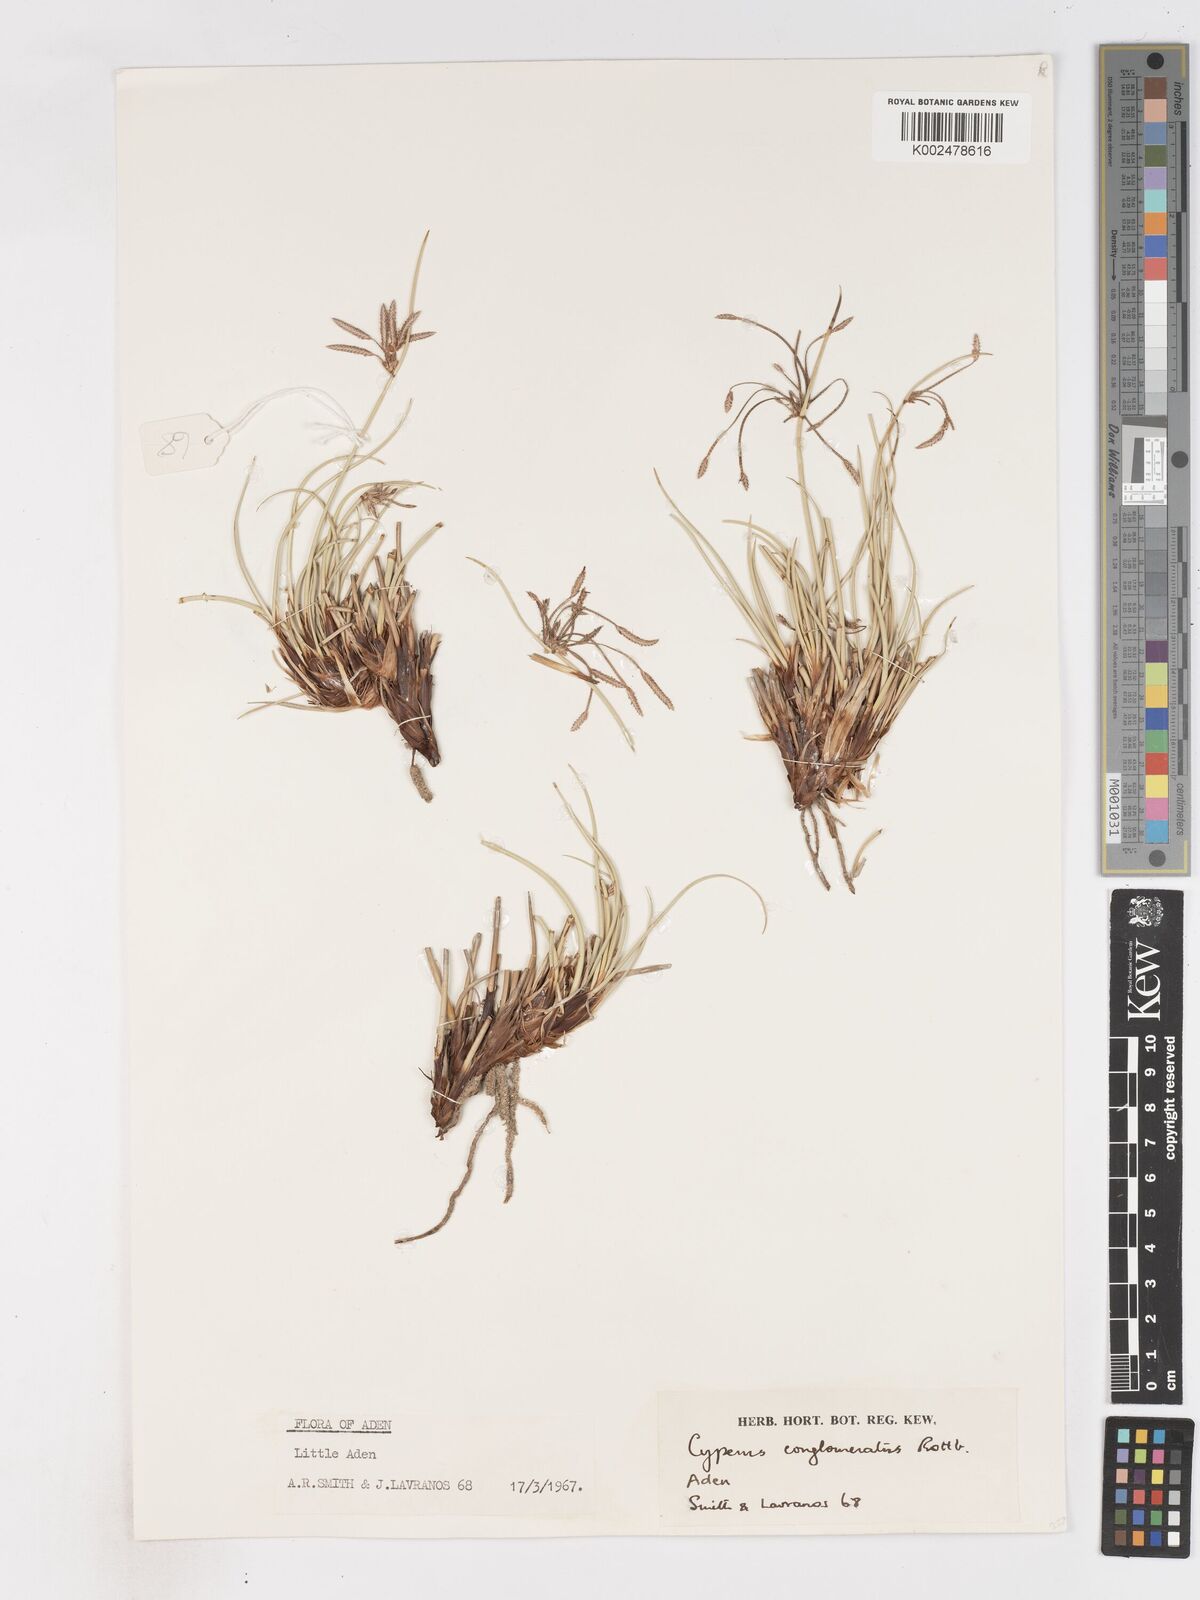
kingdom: Plantae
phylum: Tracheophyta
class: Liliopsida
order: Poales
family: Cyperaceae
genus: Cyperus
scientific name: Cyperus conglomeratus
